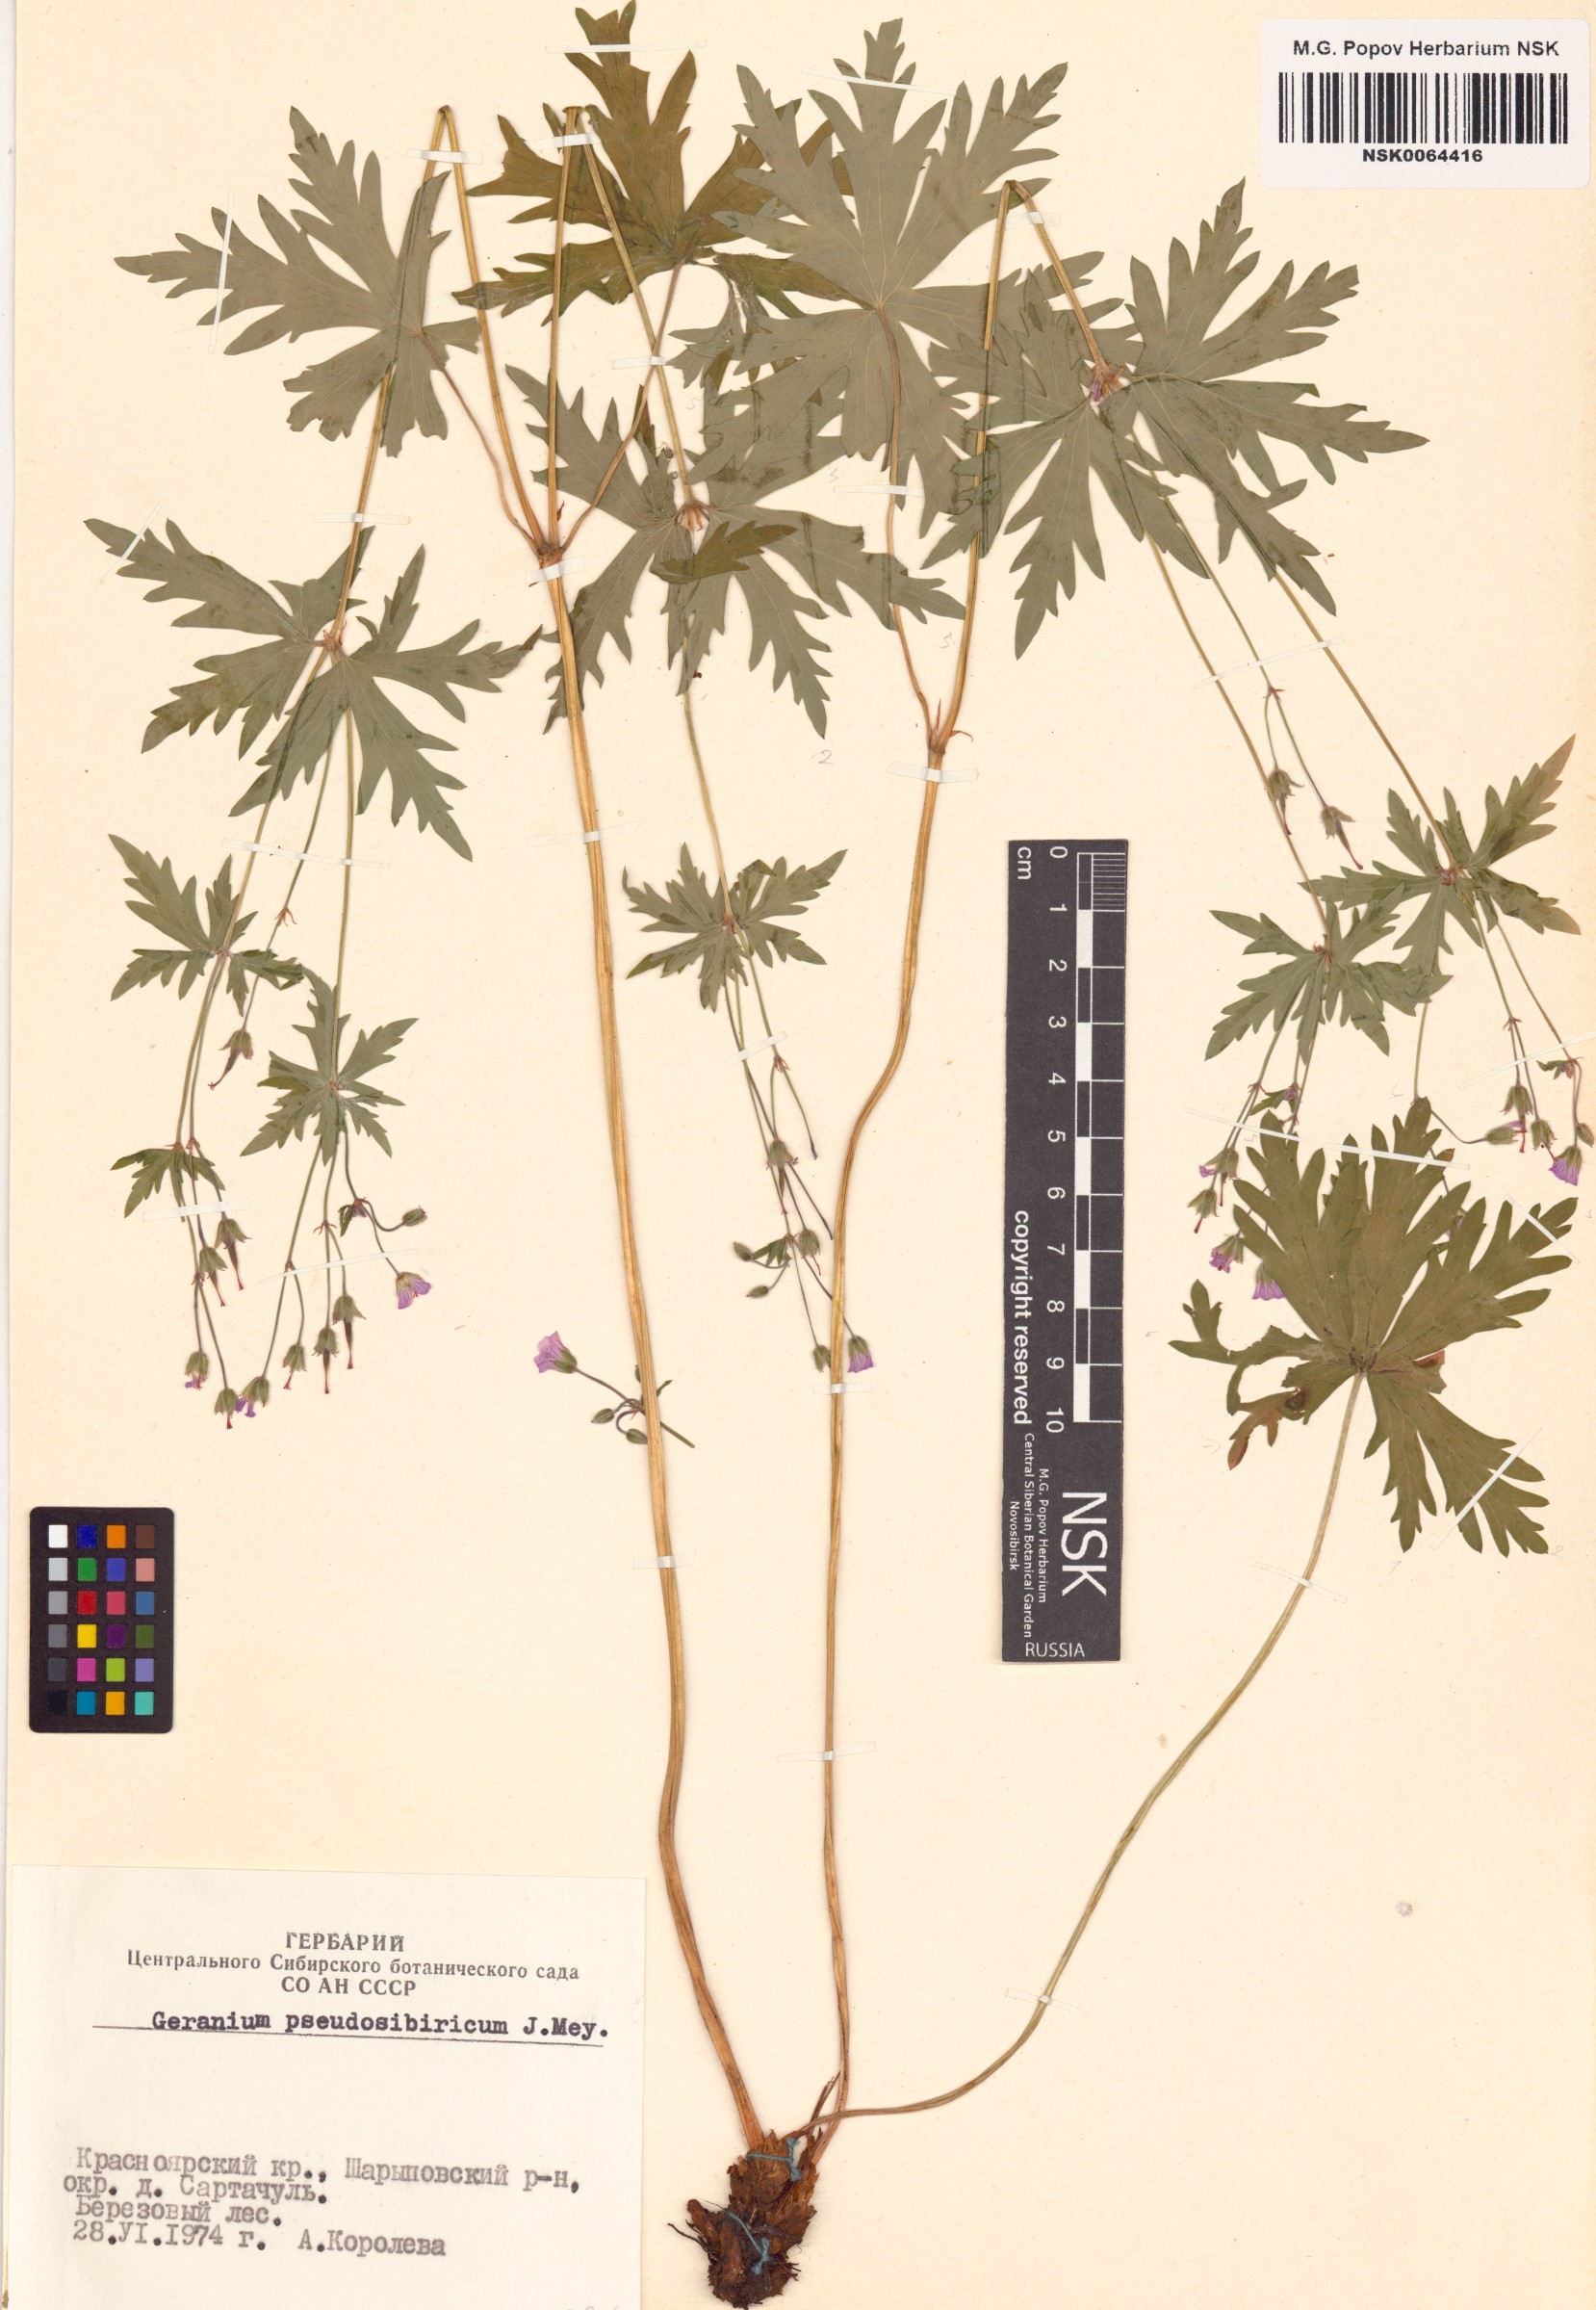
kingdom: Plantae
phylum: Tracheophyta
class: Magnoliopsida
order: Geraniales
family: Geraniaceae
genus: Geranium
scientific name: Geranium pseudosibiricum
